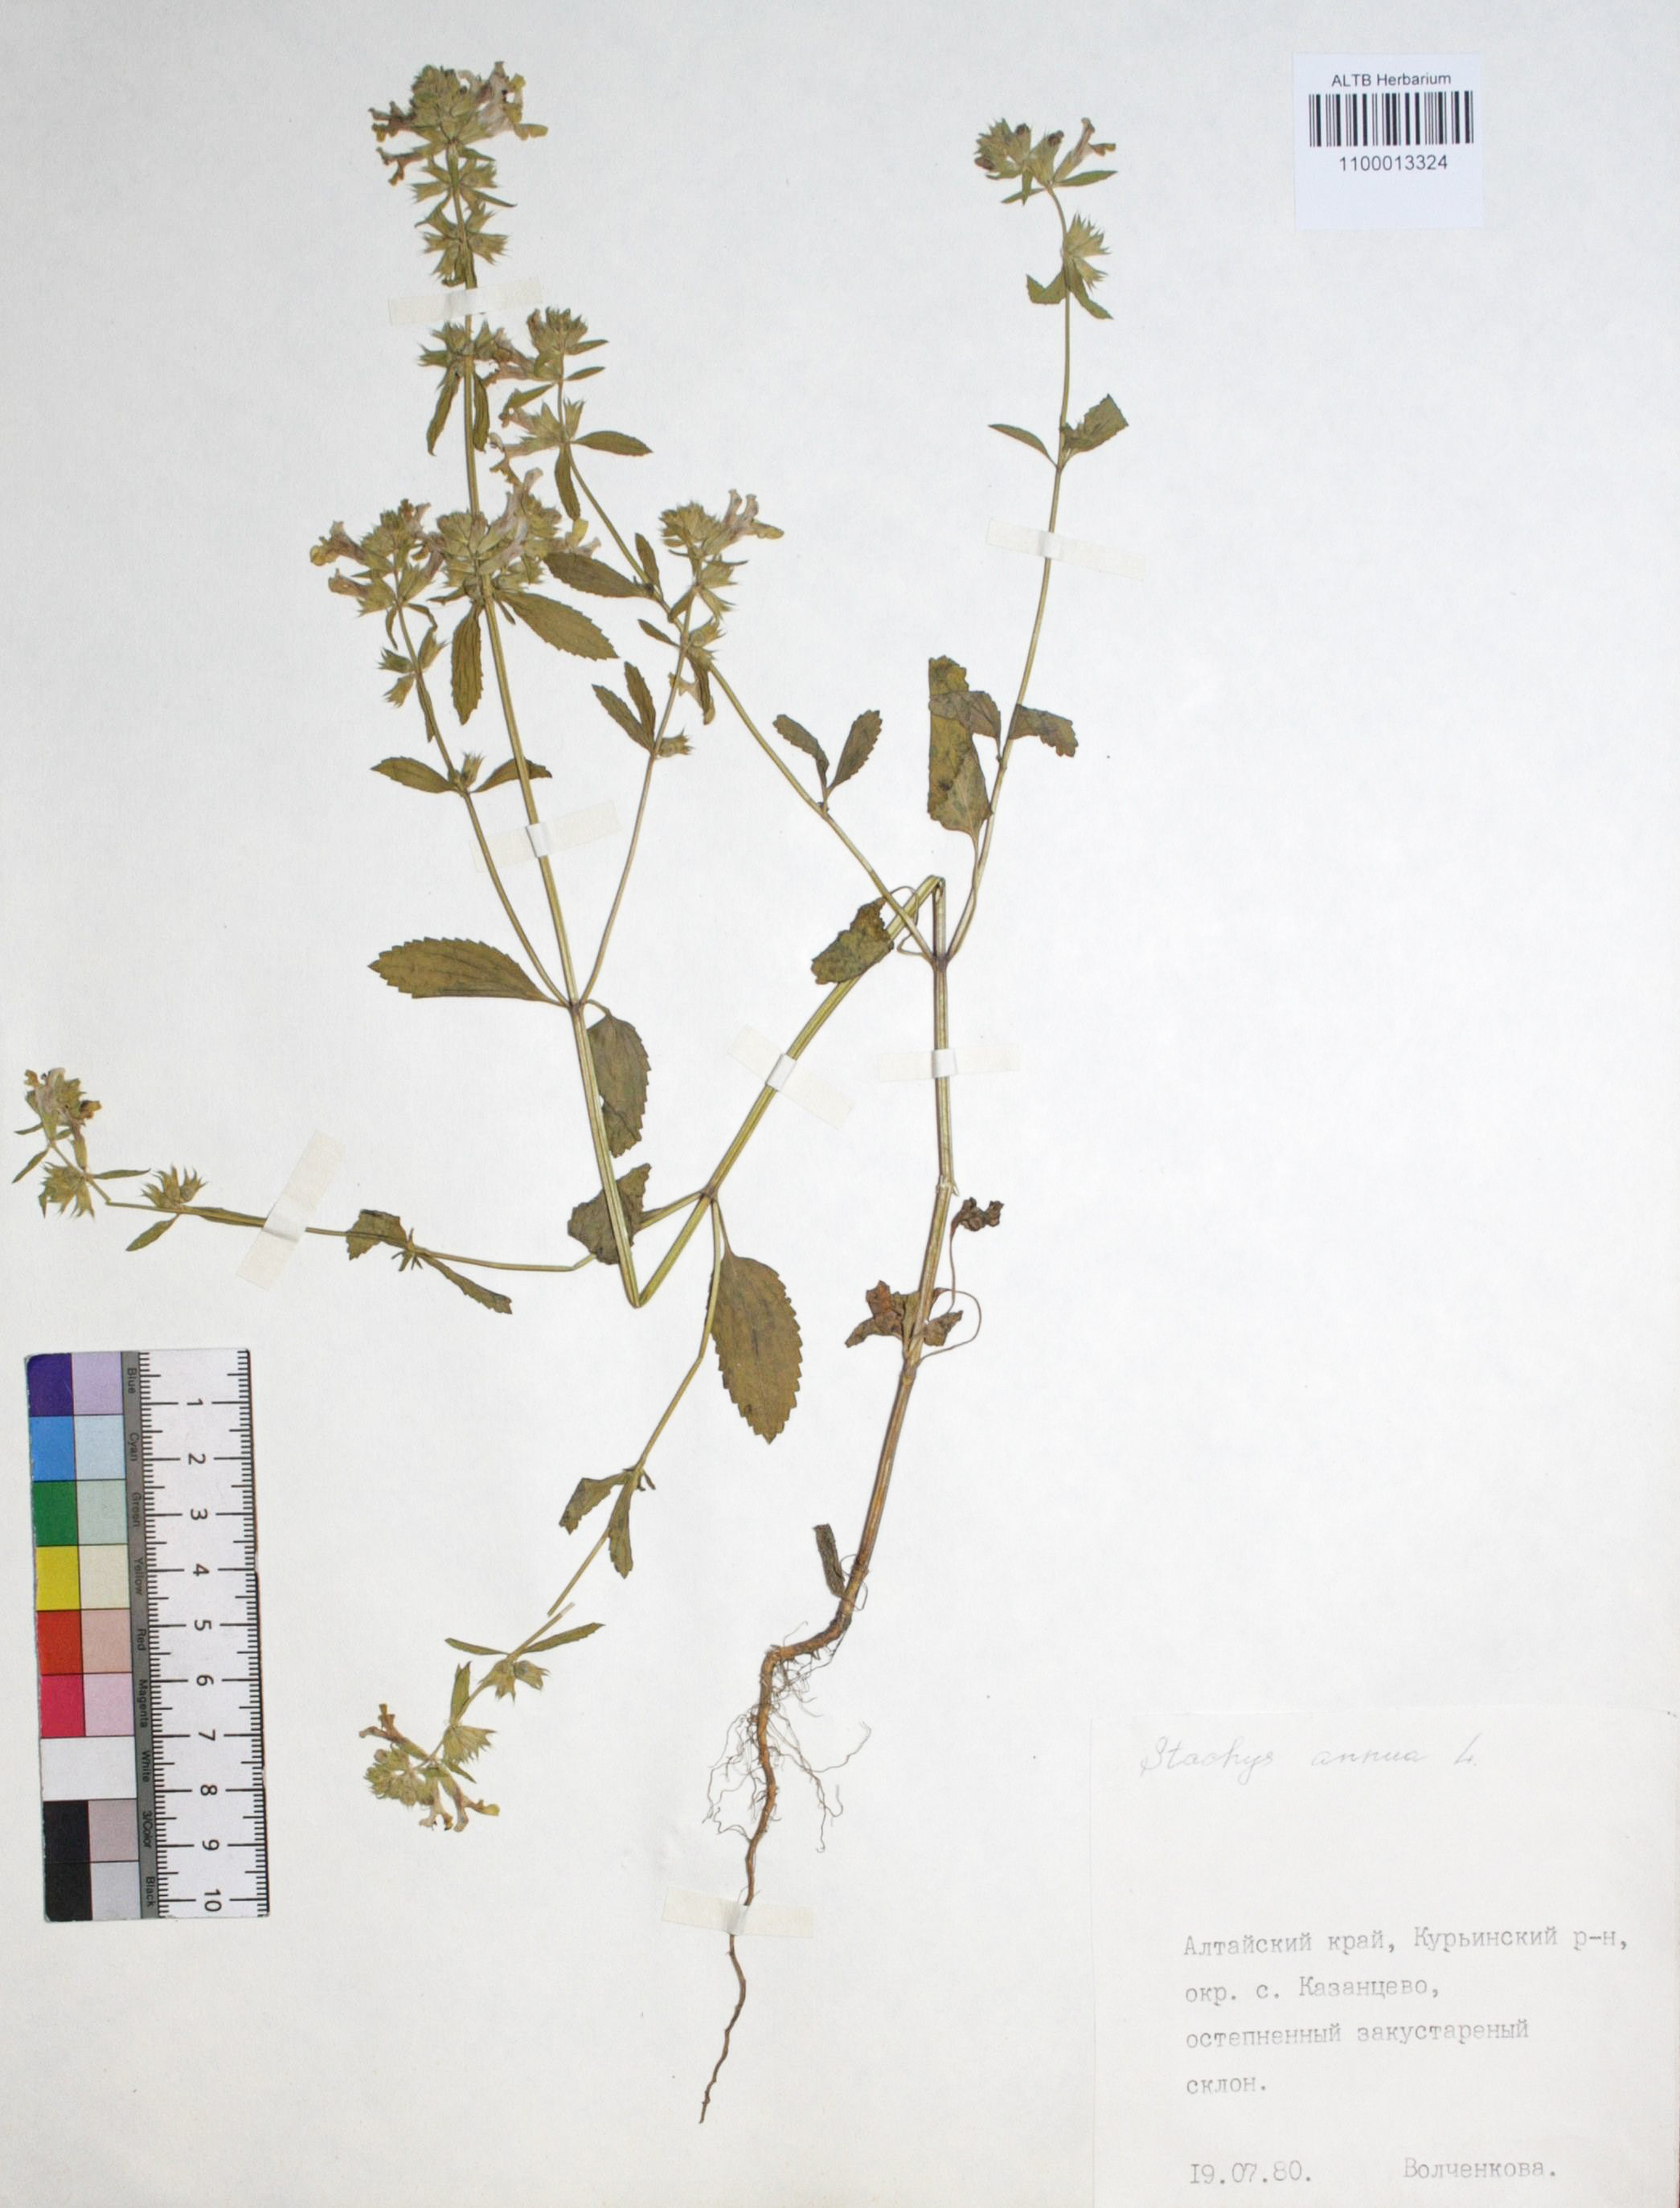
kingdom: Plantae
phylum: Tracheophyta
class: Magnoliopsida
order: Lamiales
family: Lamiaceae
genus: Stachys
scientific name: Stachys annua
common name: Annual yellow-woundwort
